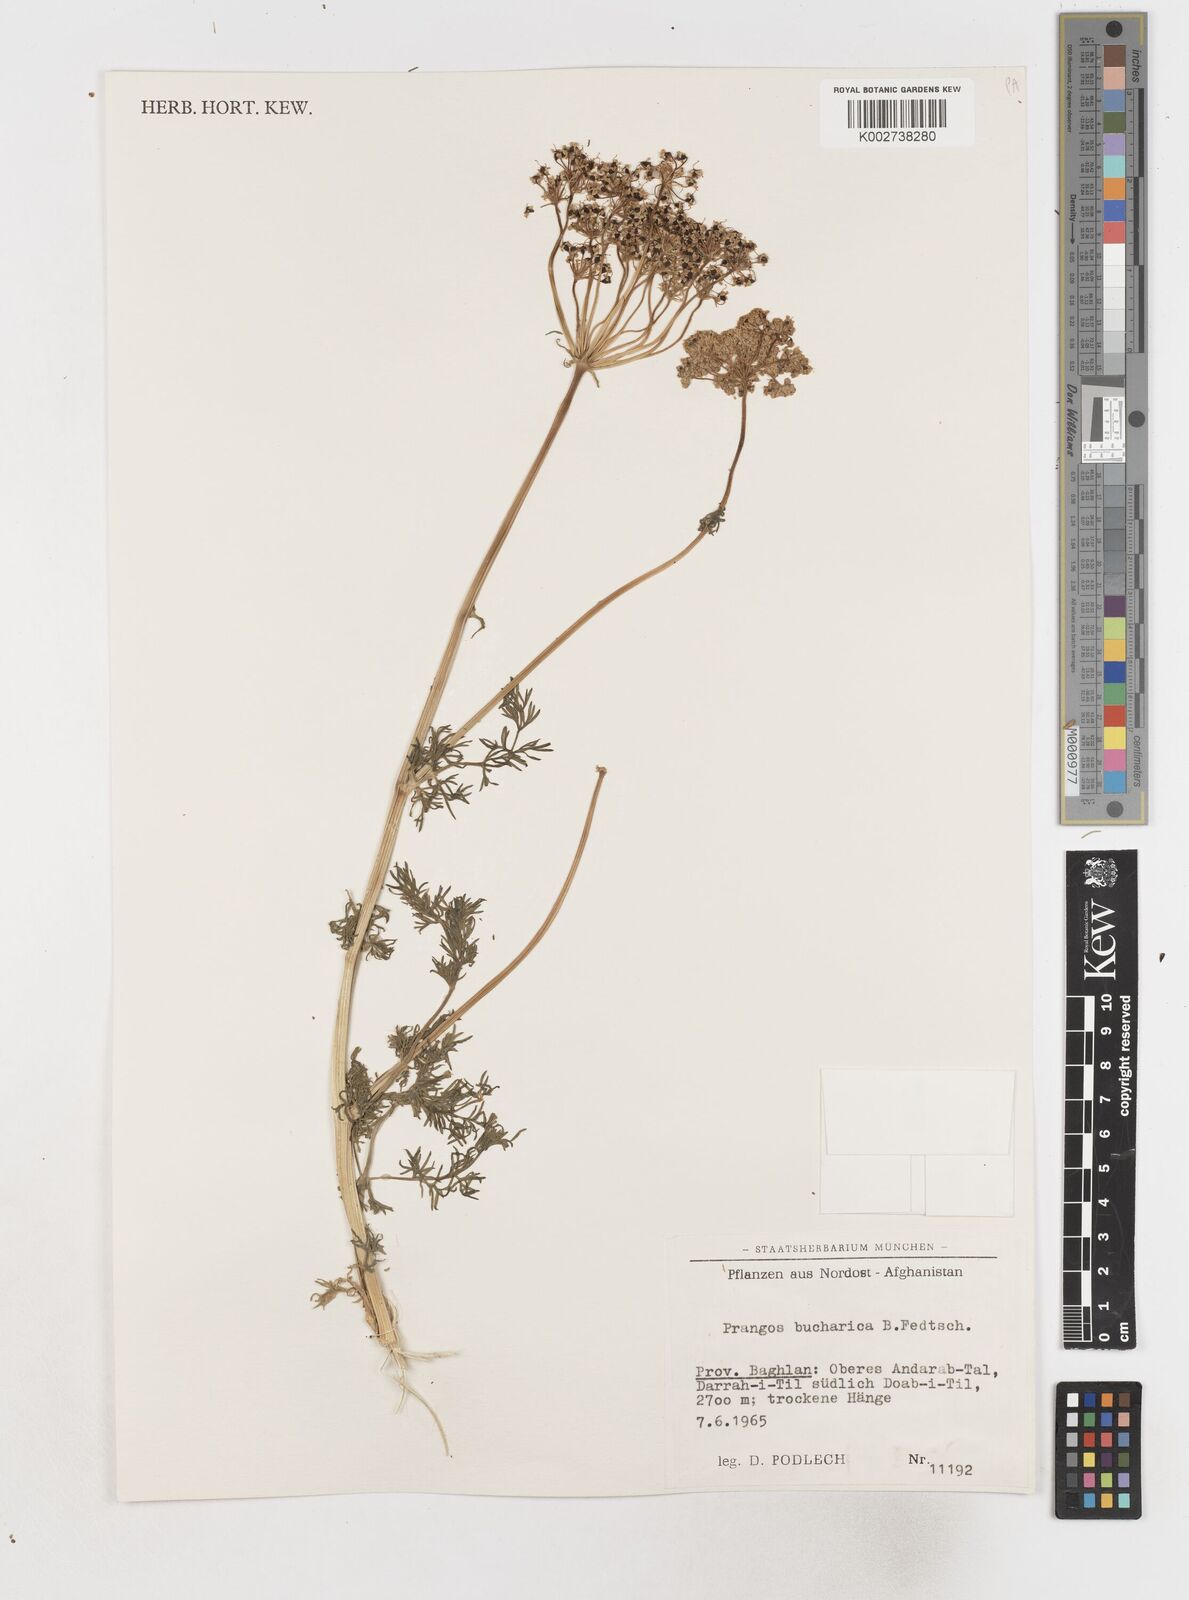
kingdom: Plantae
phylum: Tracheophyta
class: Magnoliopsida
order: Apiales
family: Apiaceae
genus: Prangos
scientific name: Prangos bucharica
